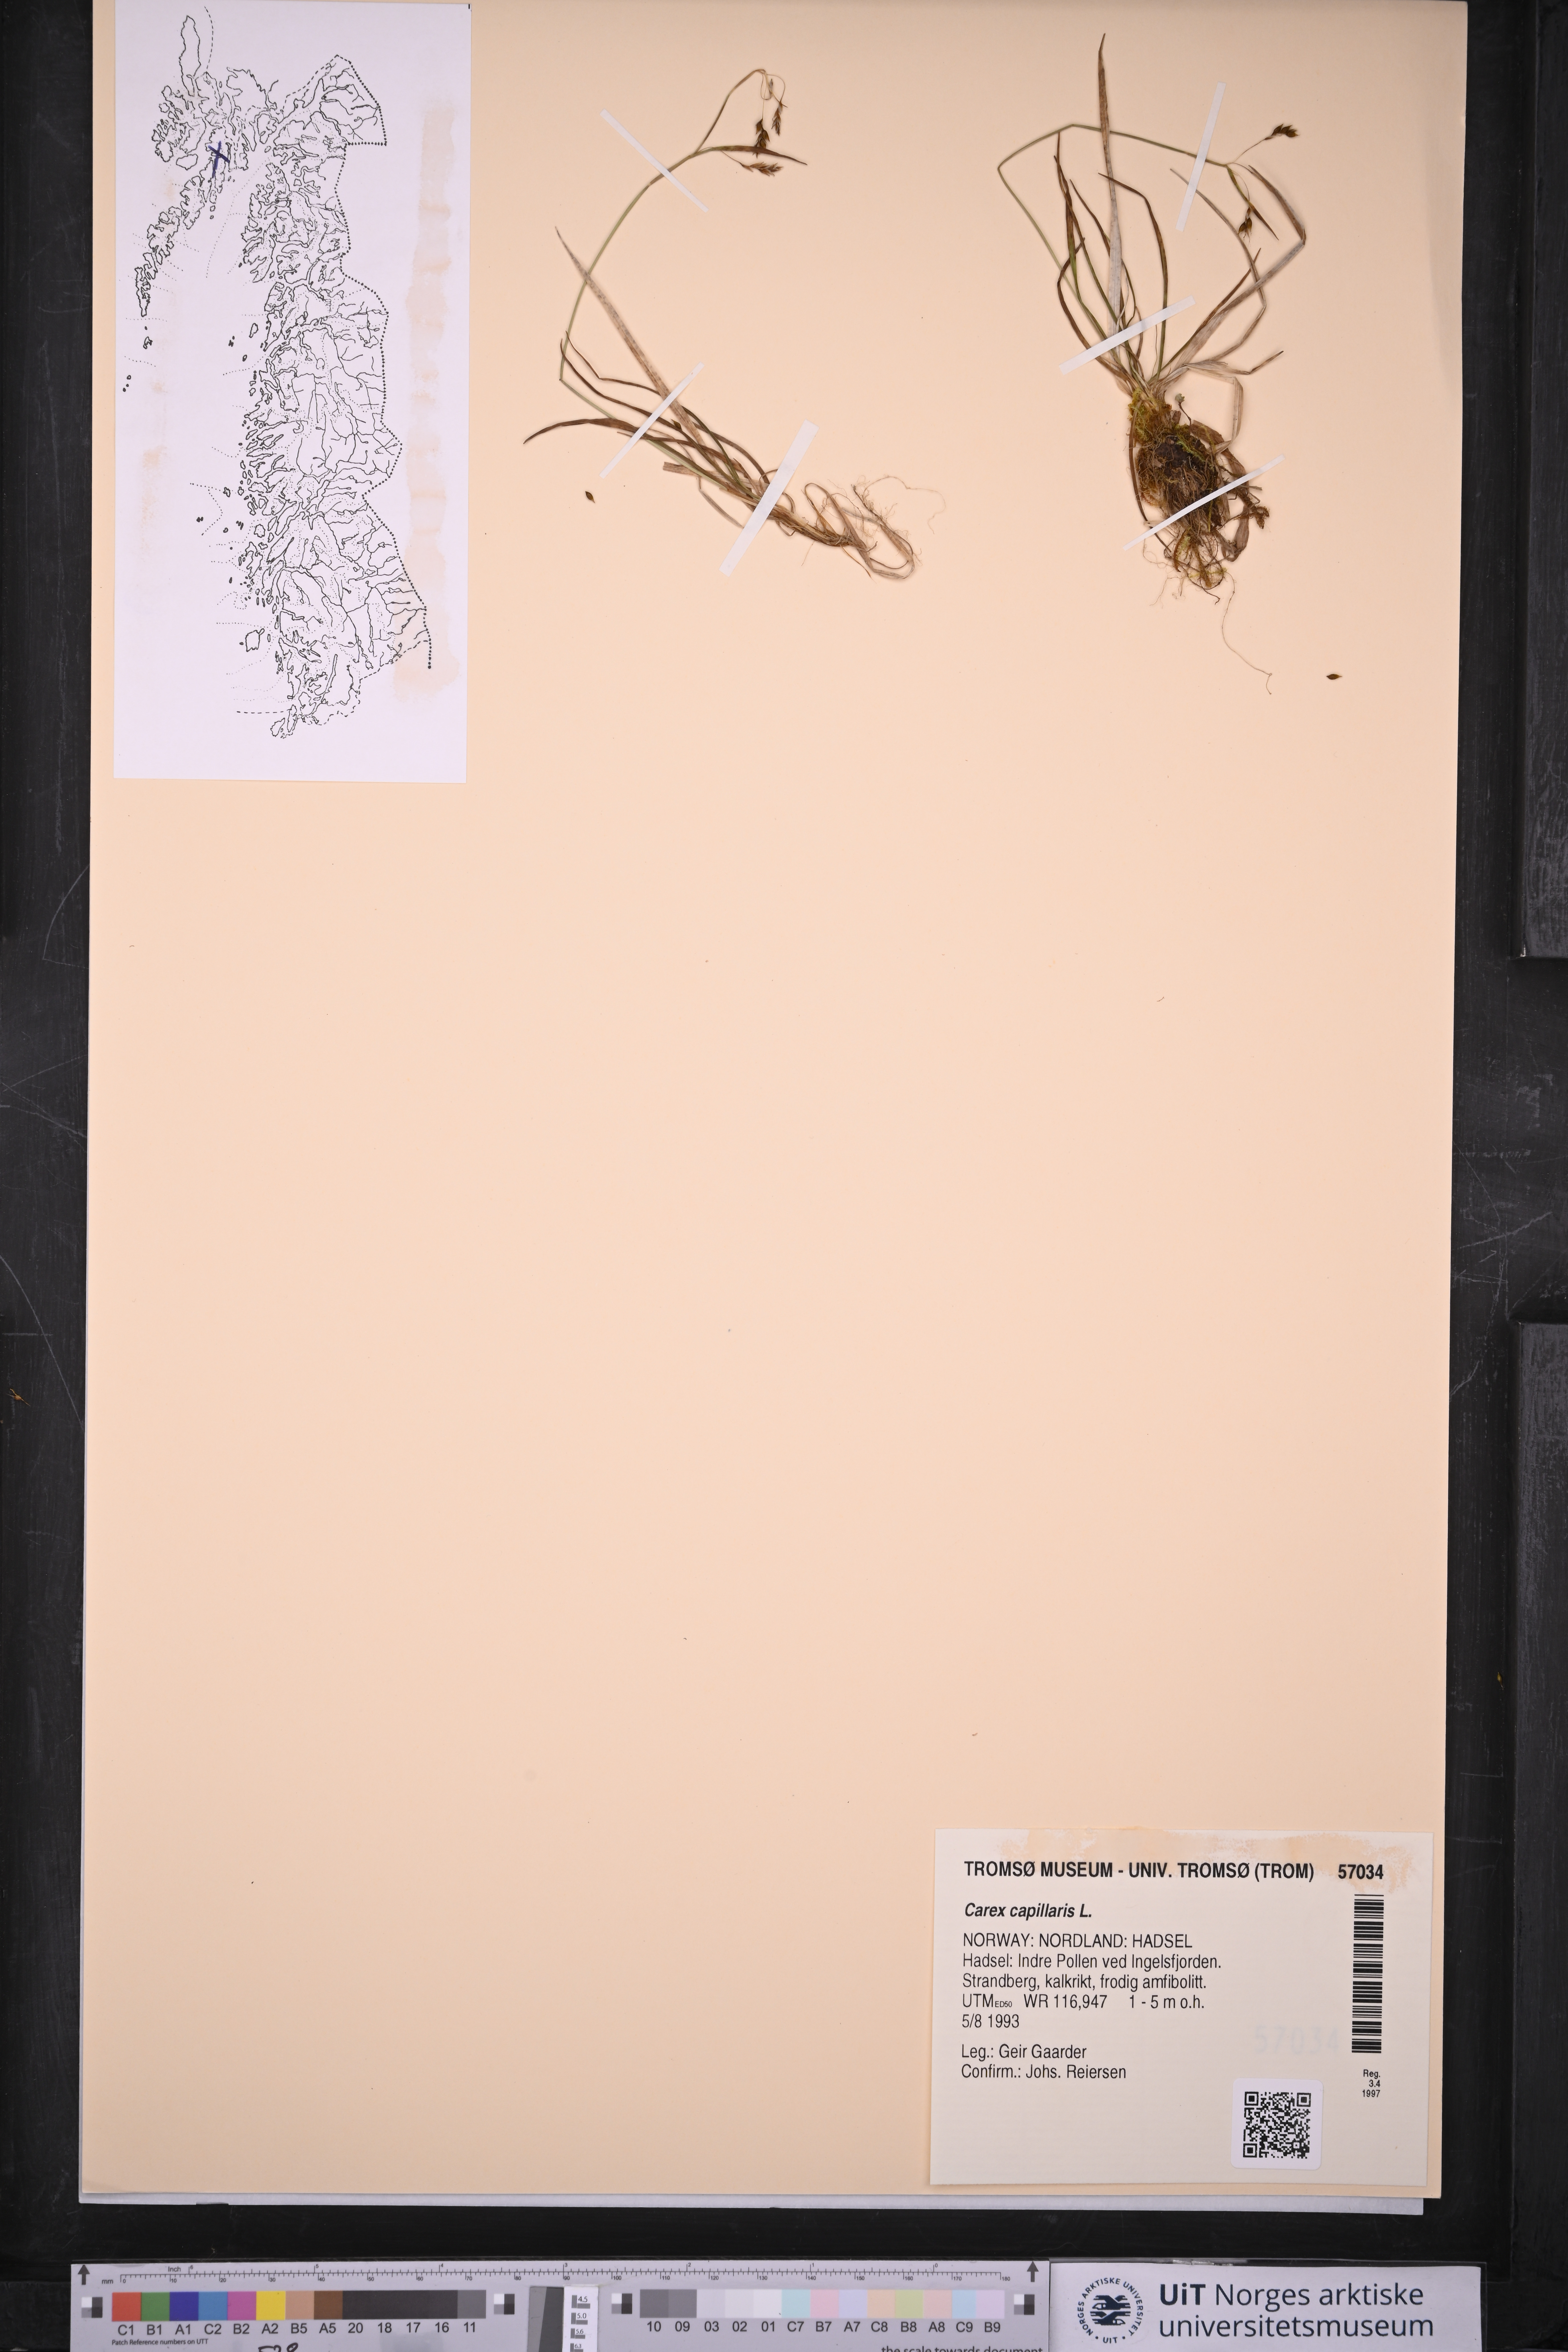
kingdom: Plantae
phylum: Tracheophyta
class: Liliopsida
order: Poales
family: Cyperaceae
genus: Carex
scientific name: Carex capillaris
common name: Hair sedge
